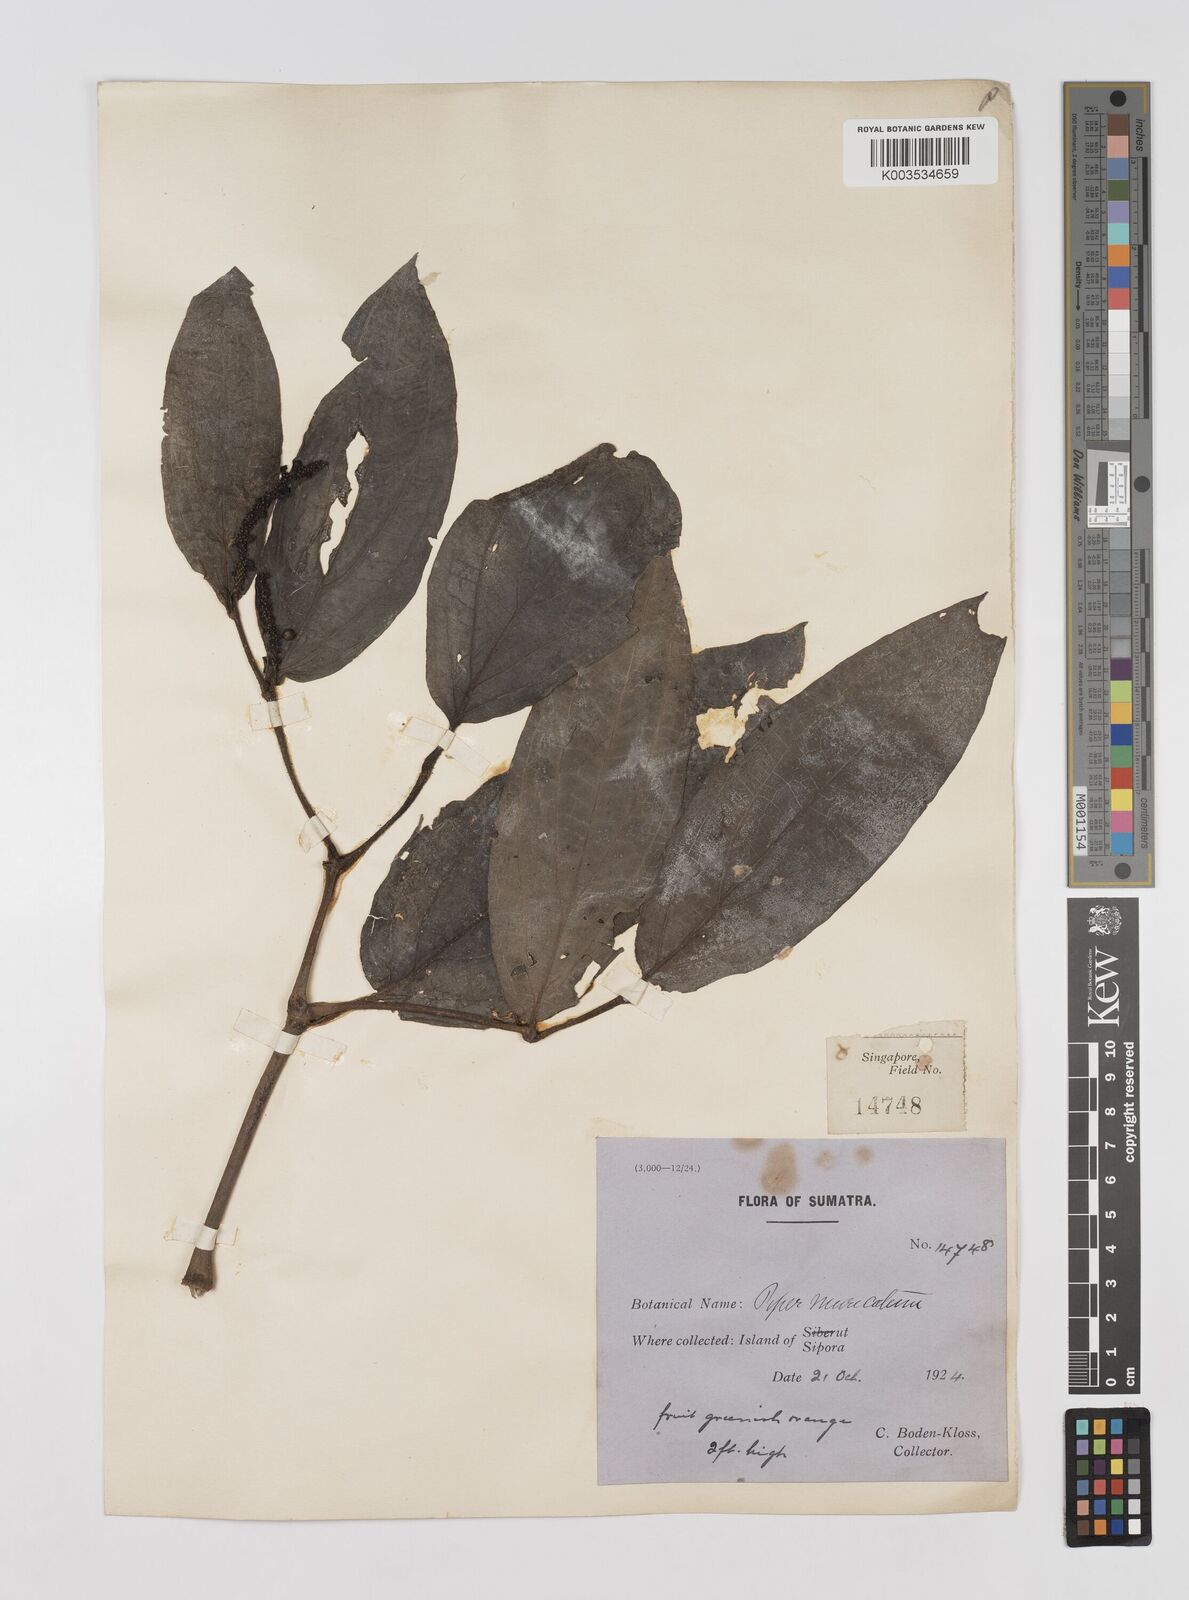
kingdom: Plantae
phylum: Tracheophyta
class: Magnoliopsida
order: Piperales
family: Piperaceae
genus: Piper
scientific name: Piper muricatum
